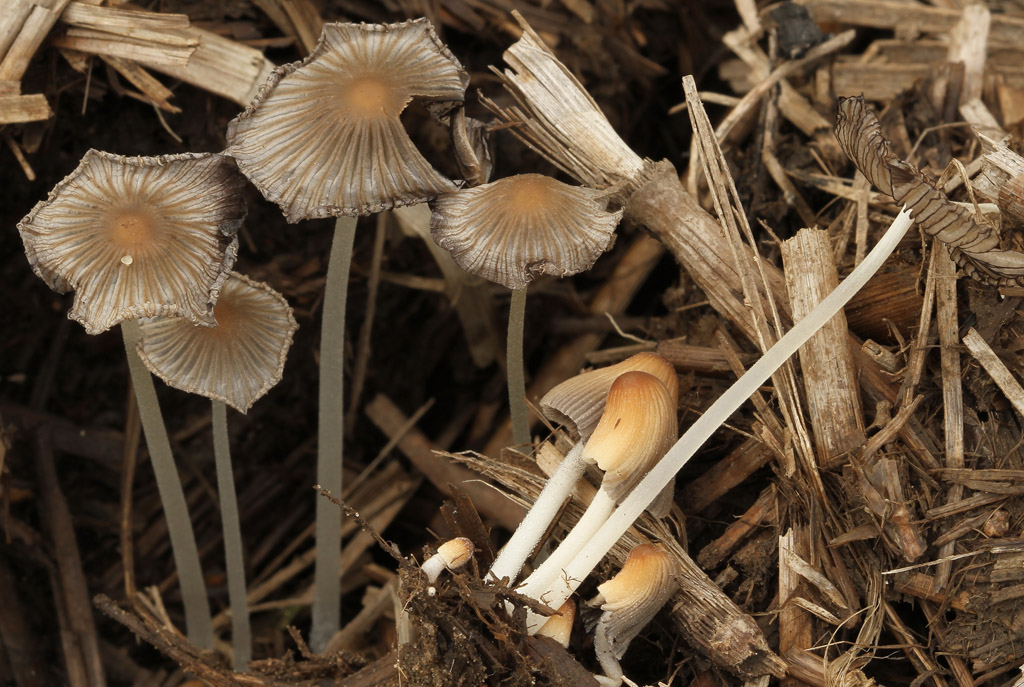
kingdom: Fungi
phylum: Basidiomycota
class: Agaricomycetes
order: Agaricales
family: Psathyrellaceae
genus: Tulosesus
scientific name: Tulosesus plagioporus
